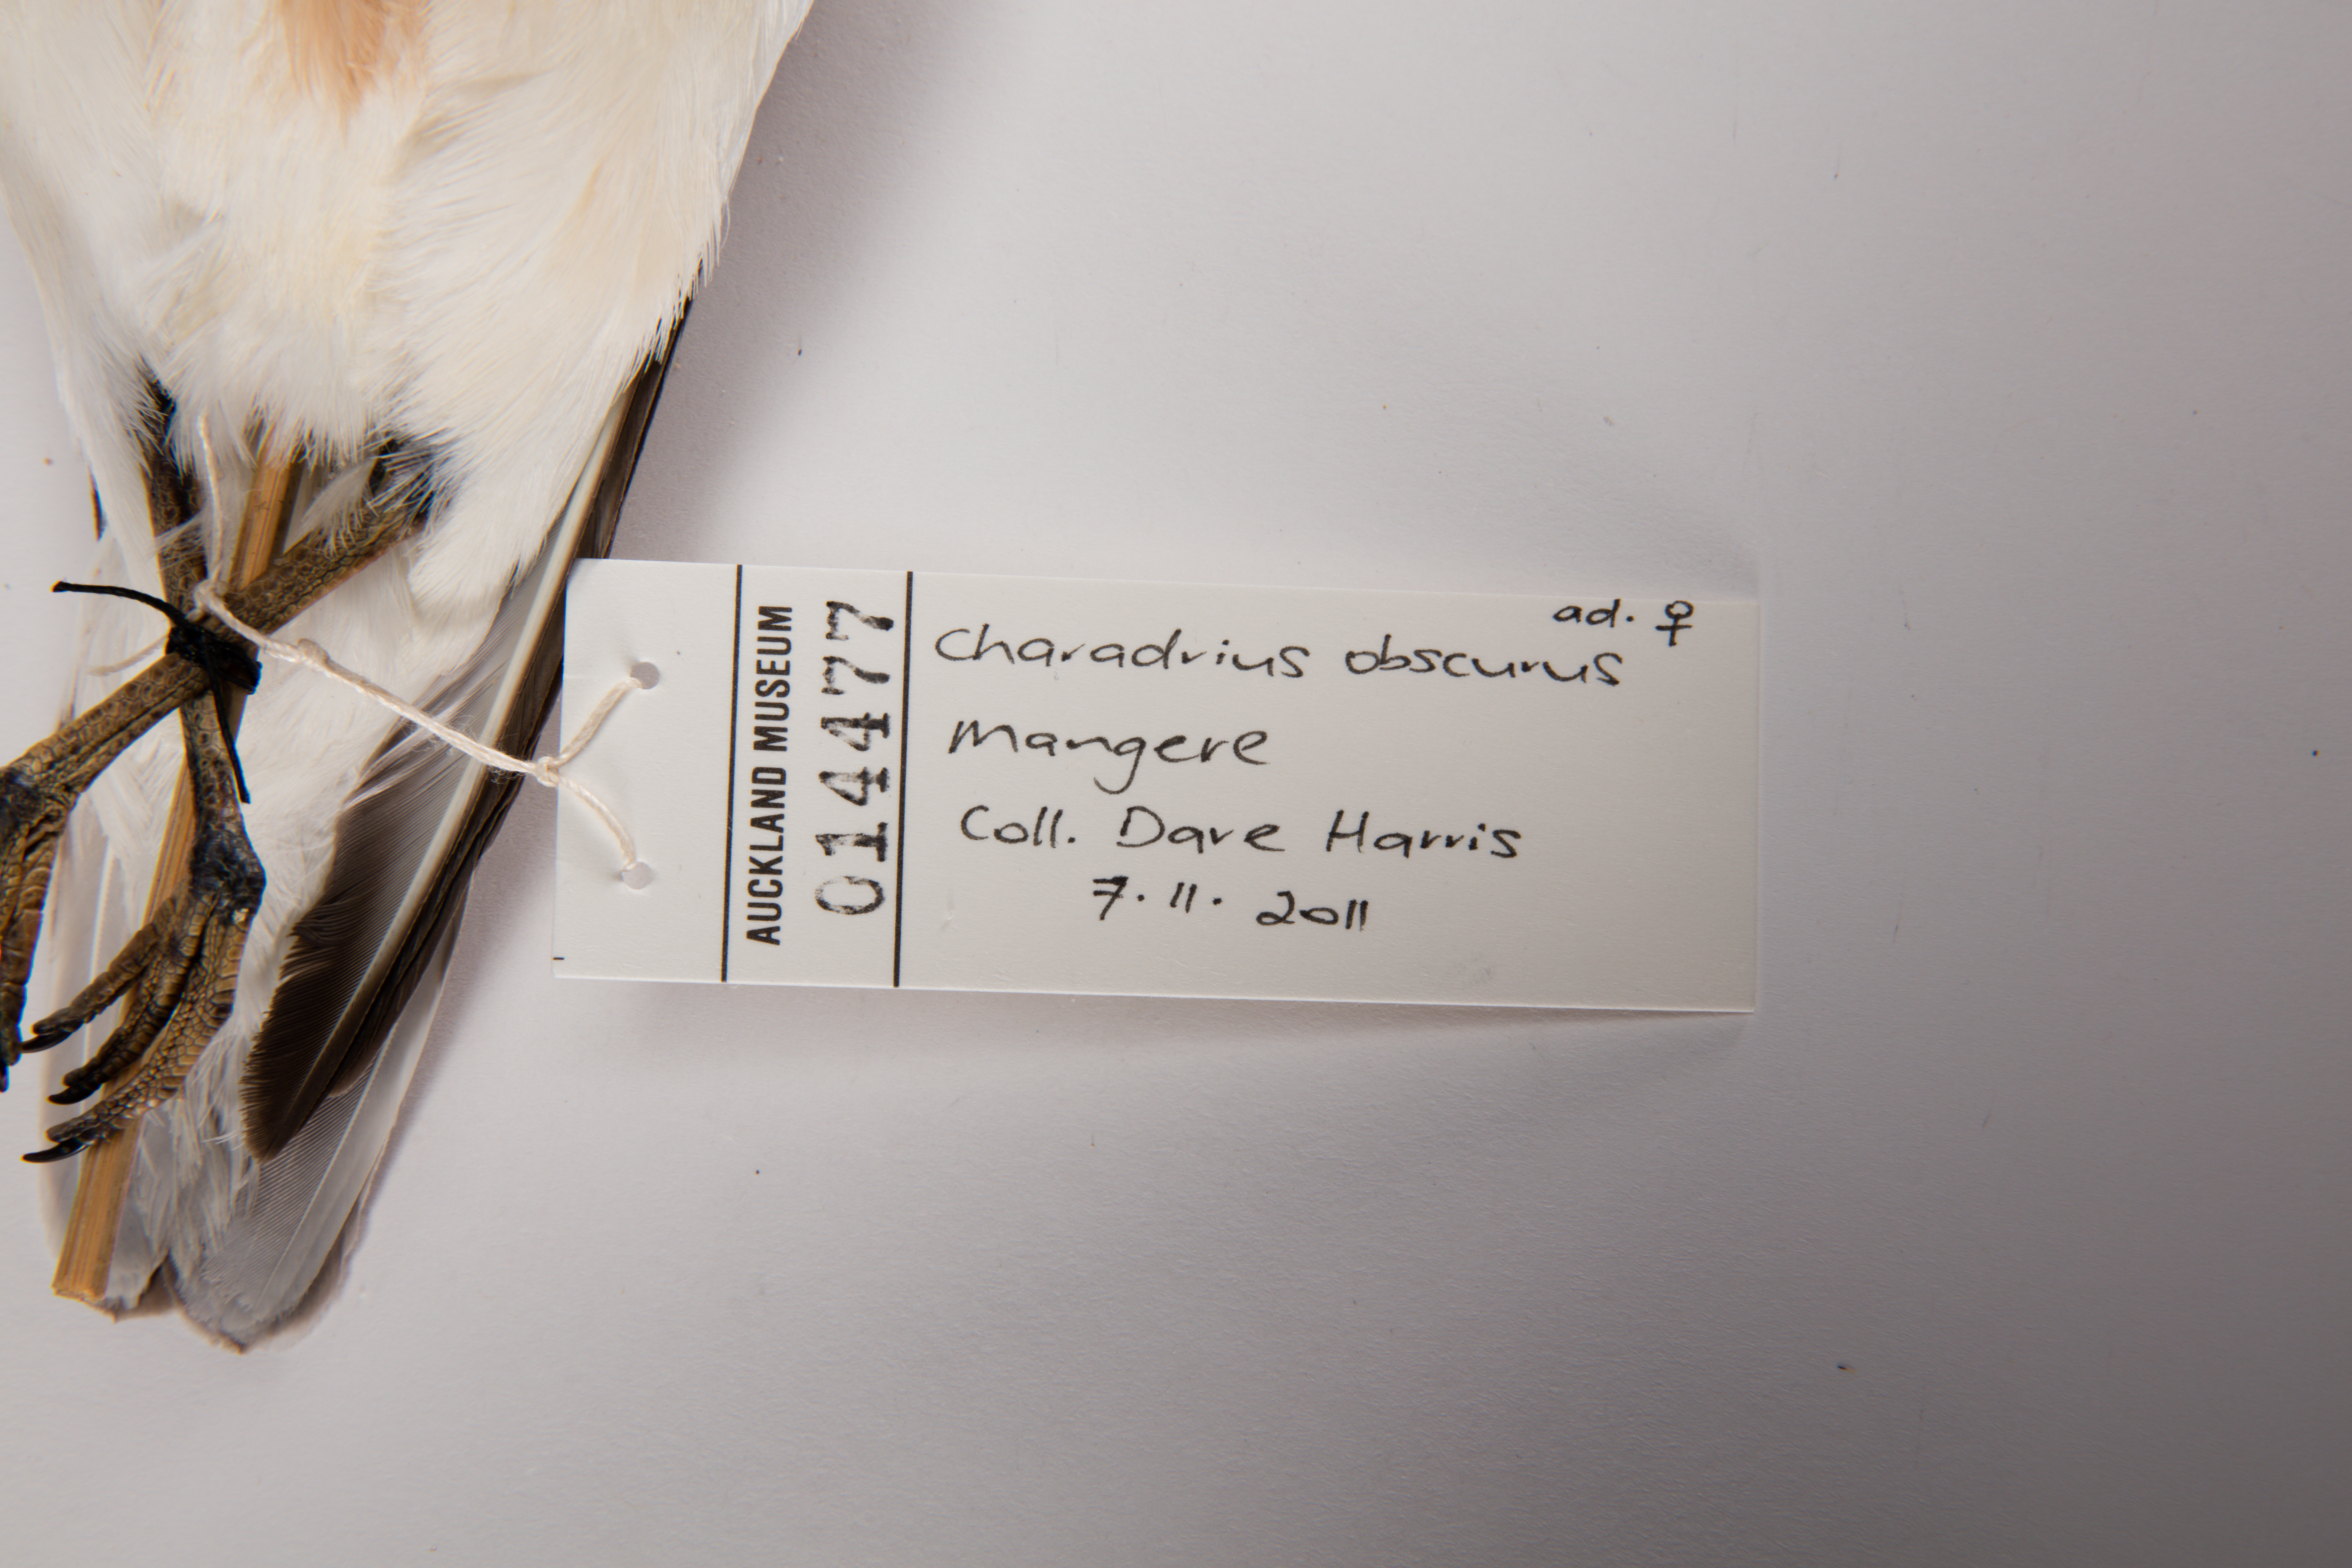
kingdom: Animalia
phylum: Chordata
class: Aves
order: Charadriiformes
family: Charadriidae
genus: Charadrius
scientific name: Charadrius obscurus
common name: New zealand plover
